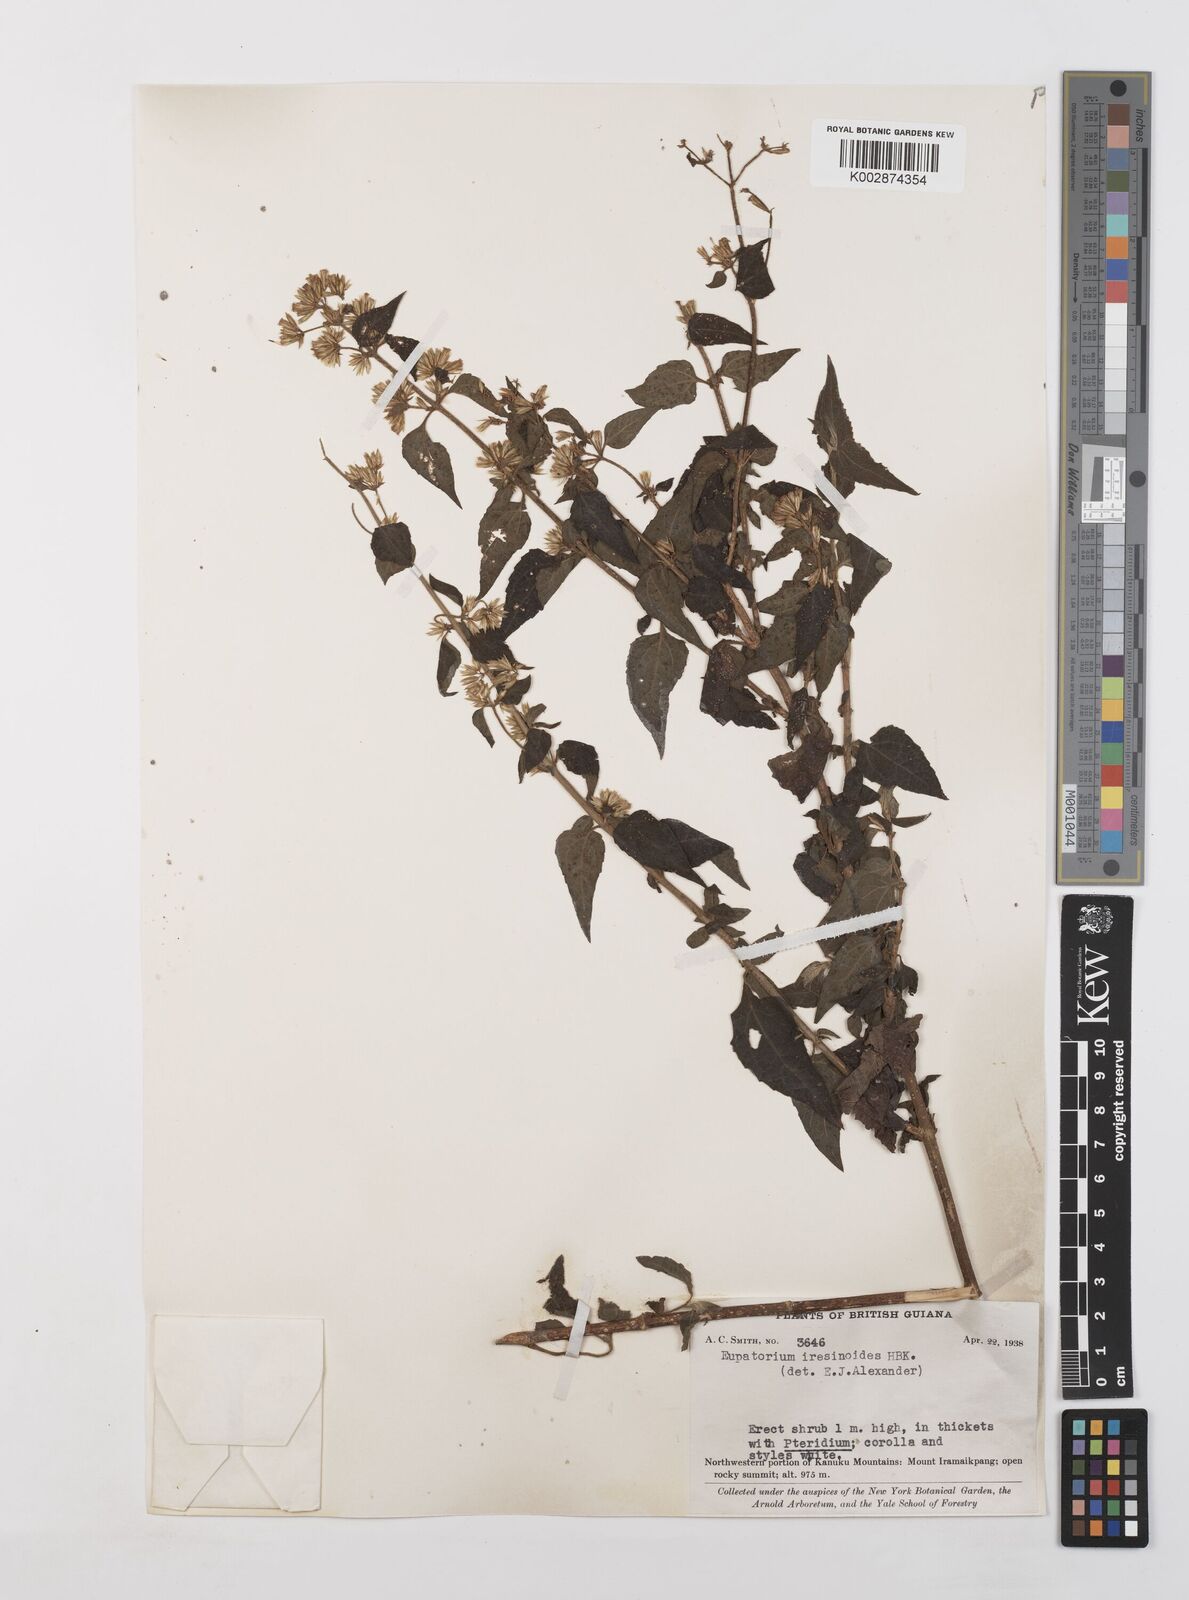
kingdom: Plantae
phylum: Tracheophyta
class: Magnoliopsida
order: Asterales
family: Asteraceae
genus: Condylidium
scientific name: Condylidium iresinoides
